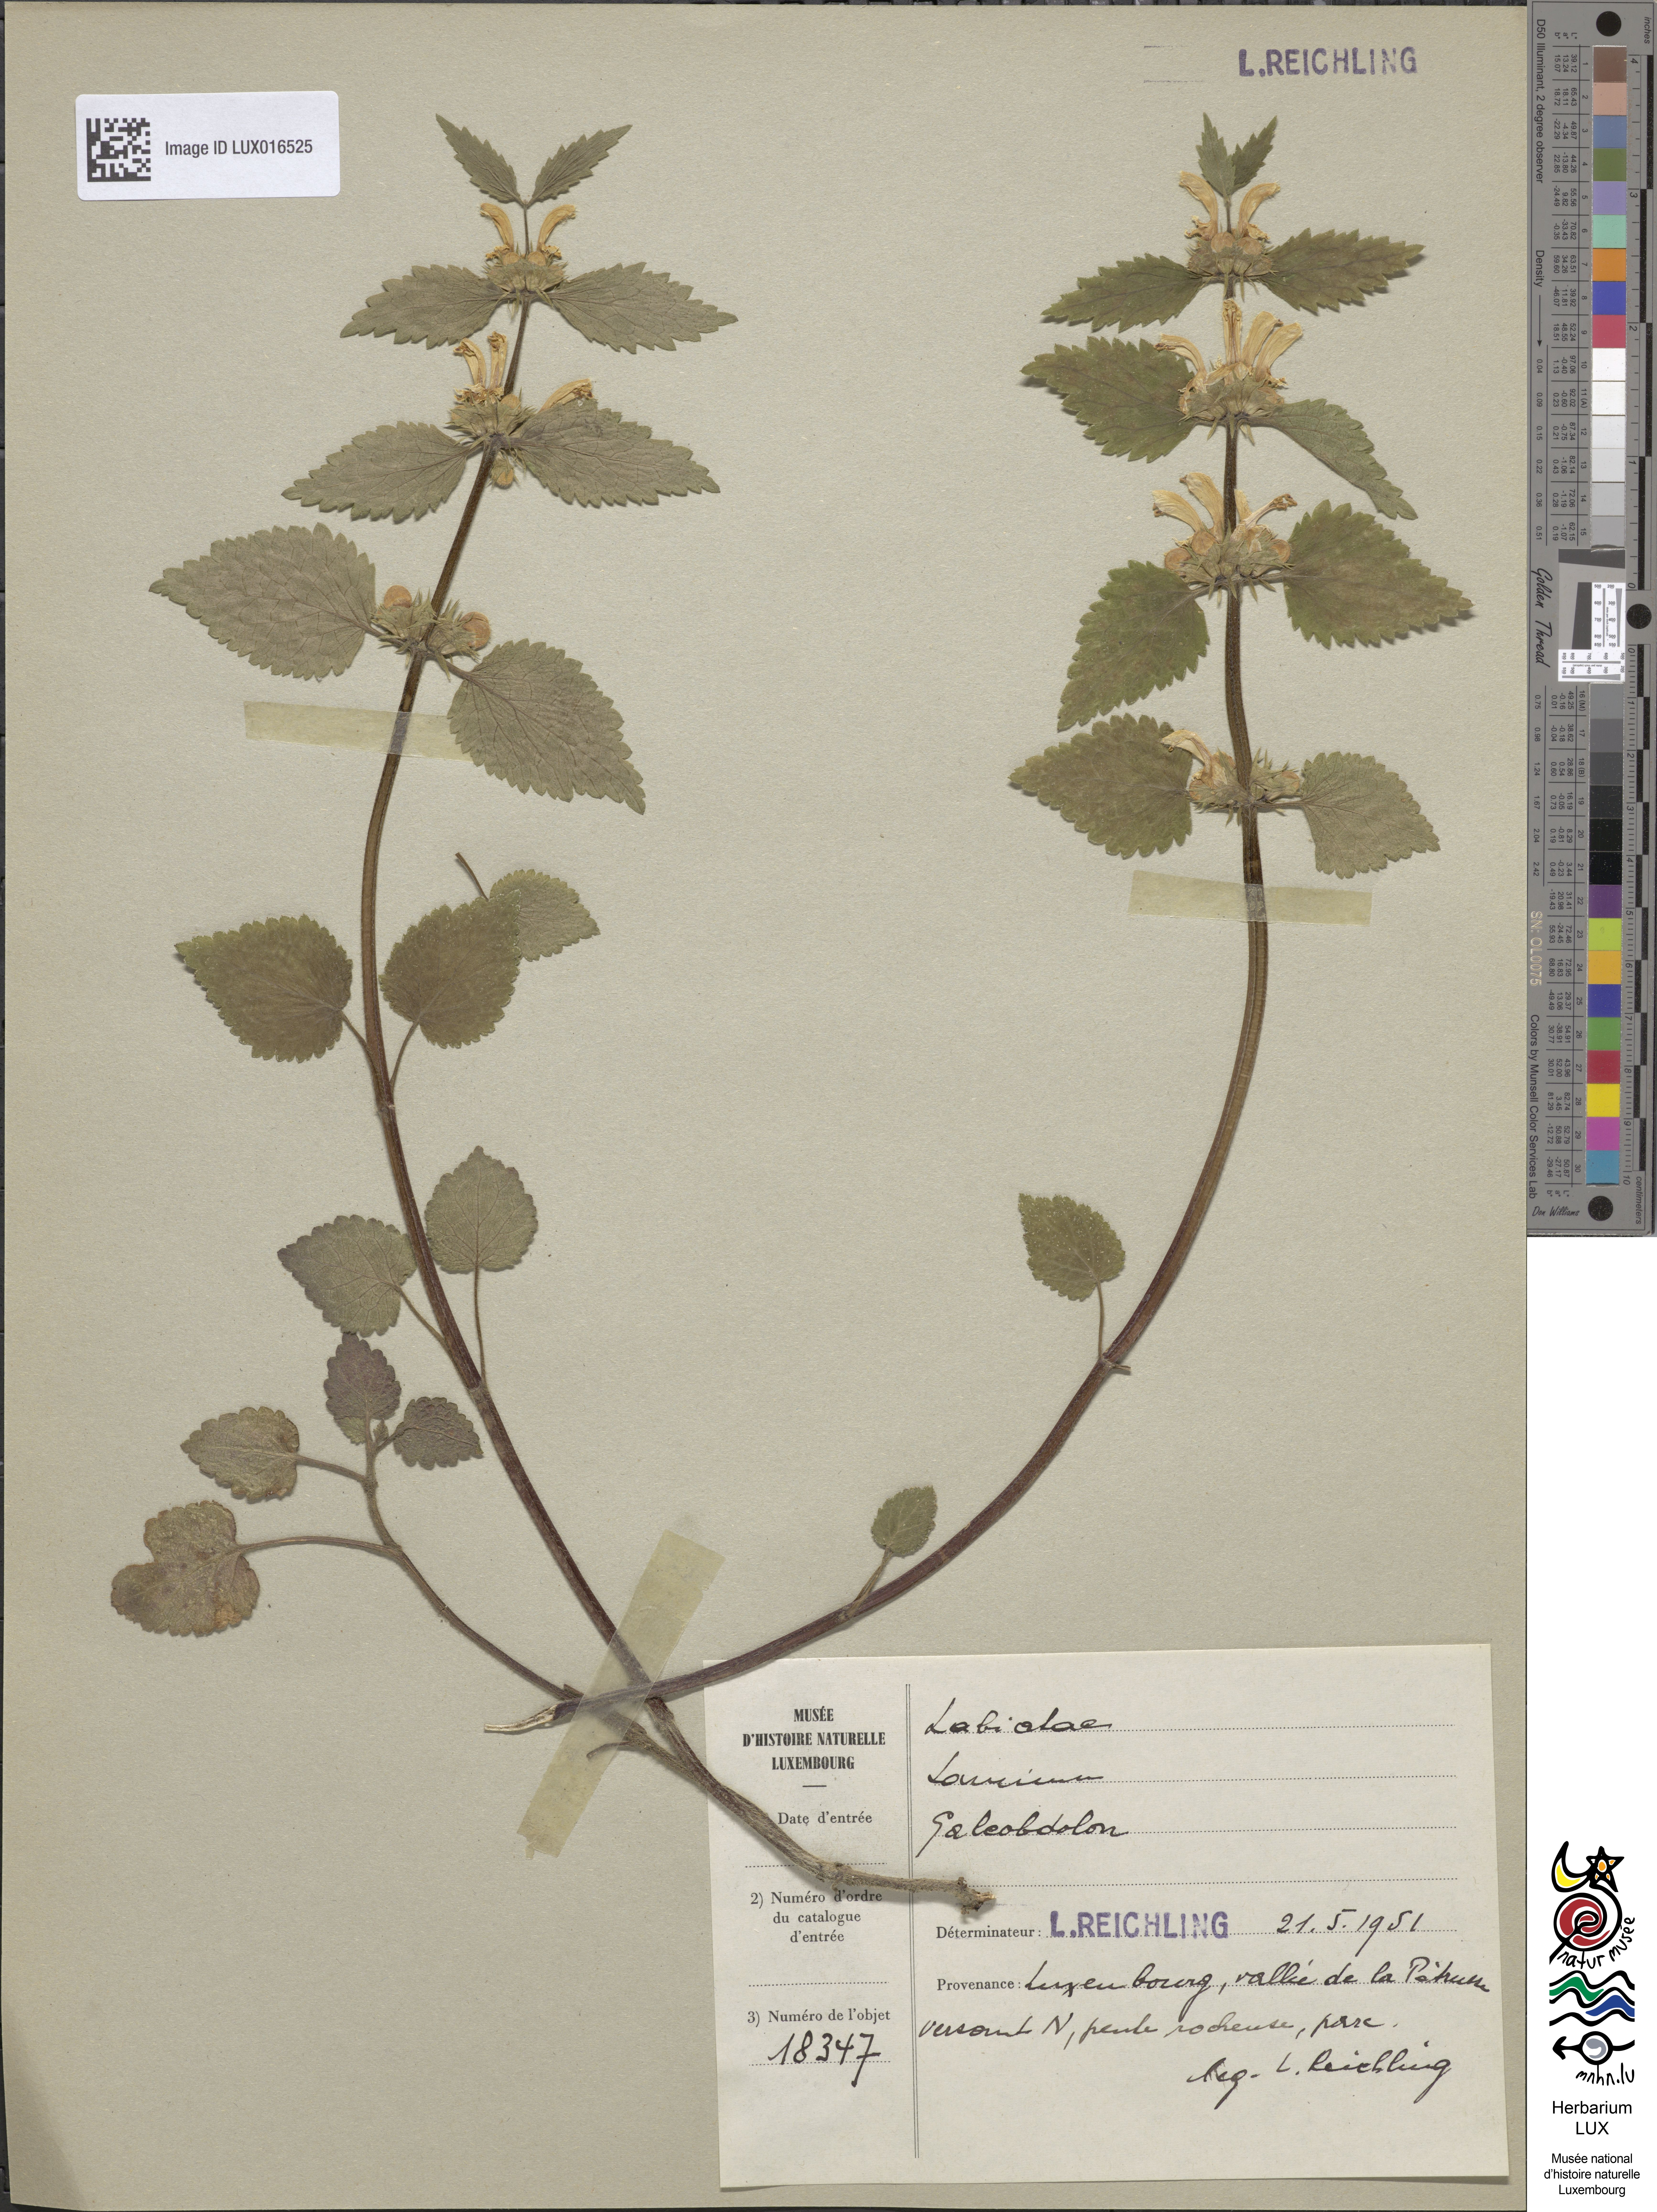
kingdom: Plantae
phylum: Tracheophyta
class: Magnoliopsida
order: Lamiales
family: Lamiaceae
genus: Lamium
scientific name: Lamium galeobdolon
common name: Yellow archangel
